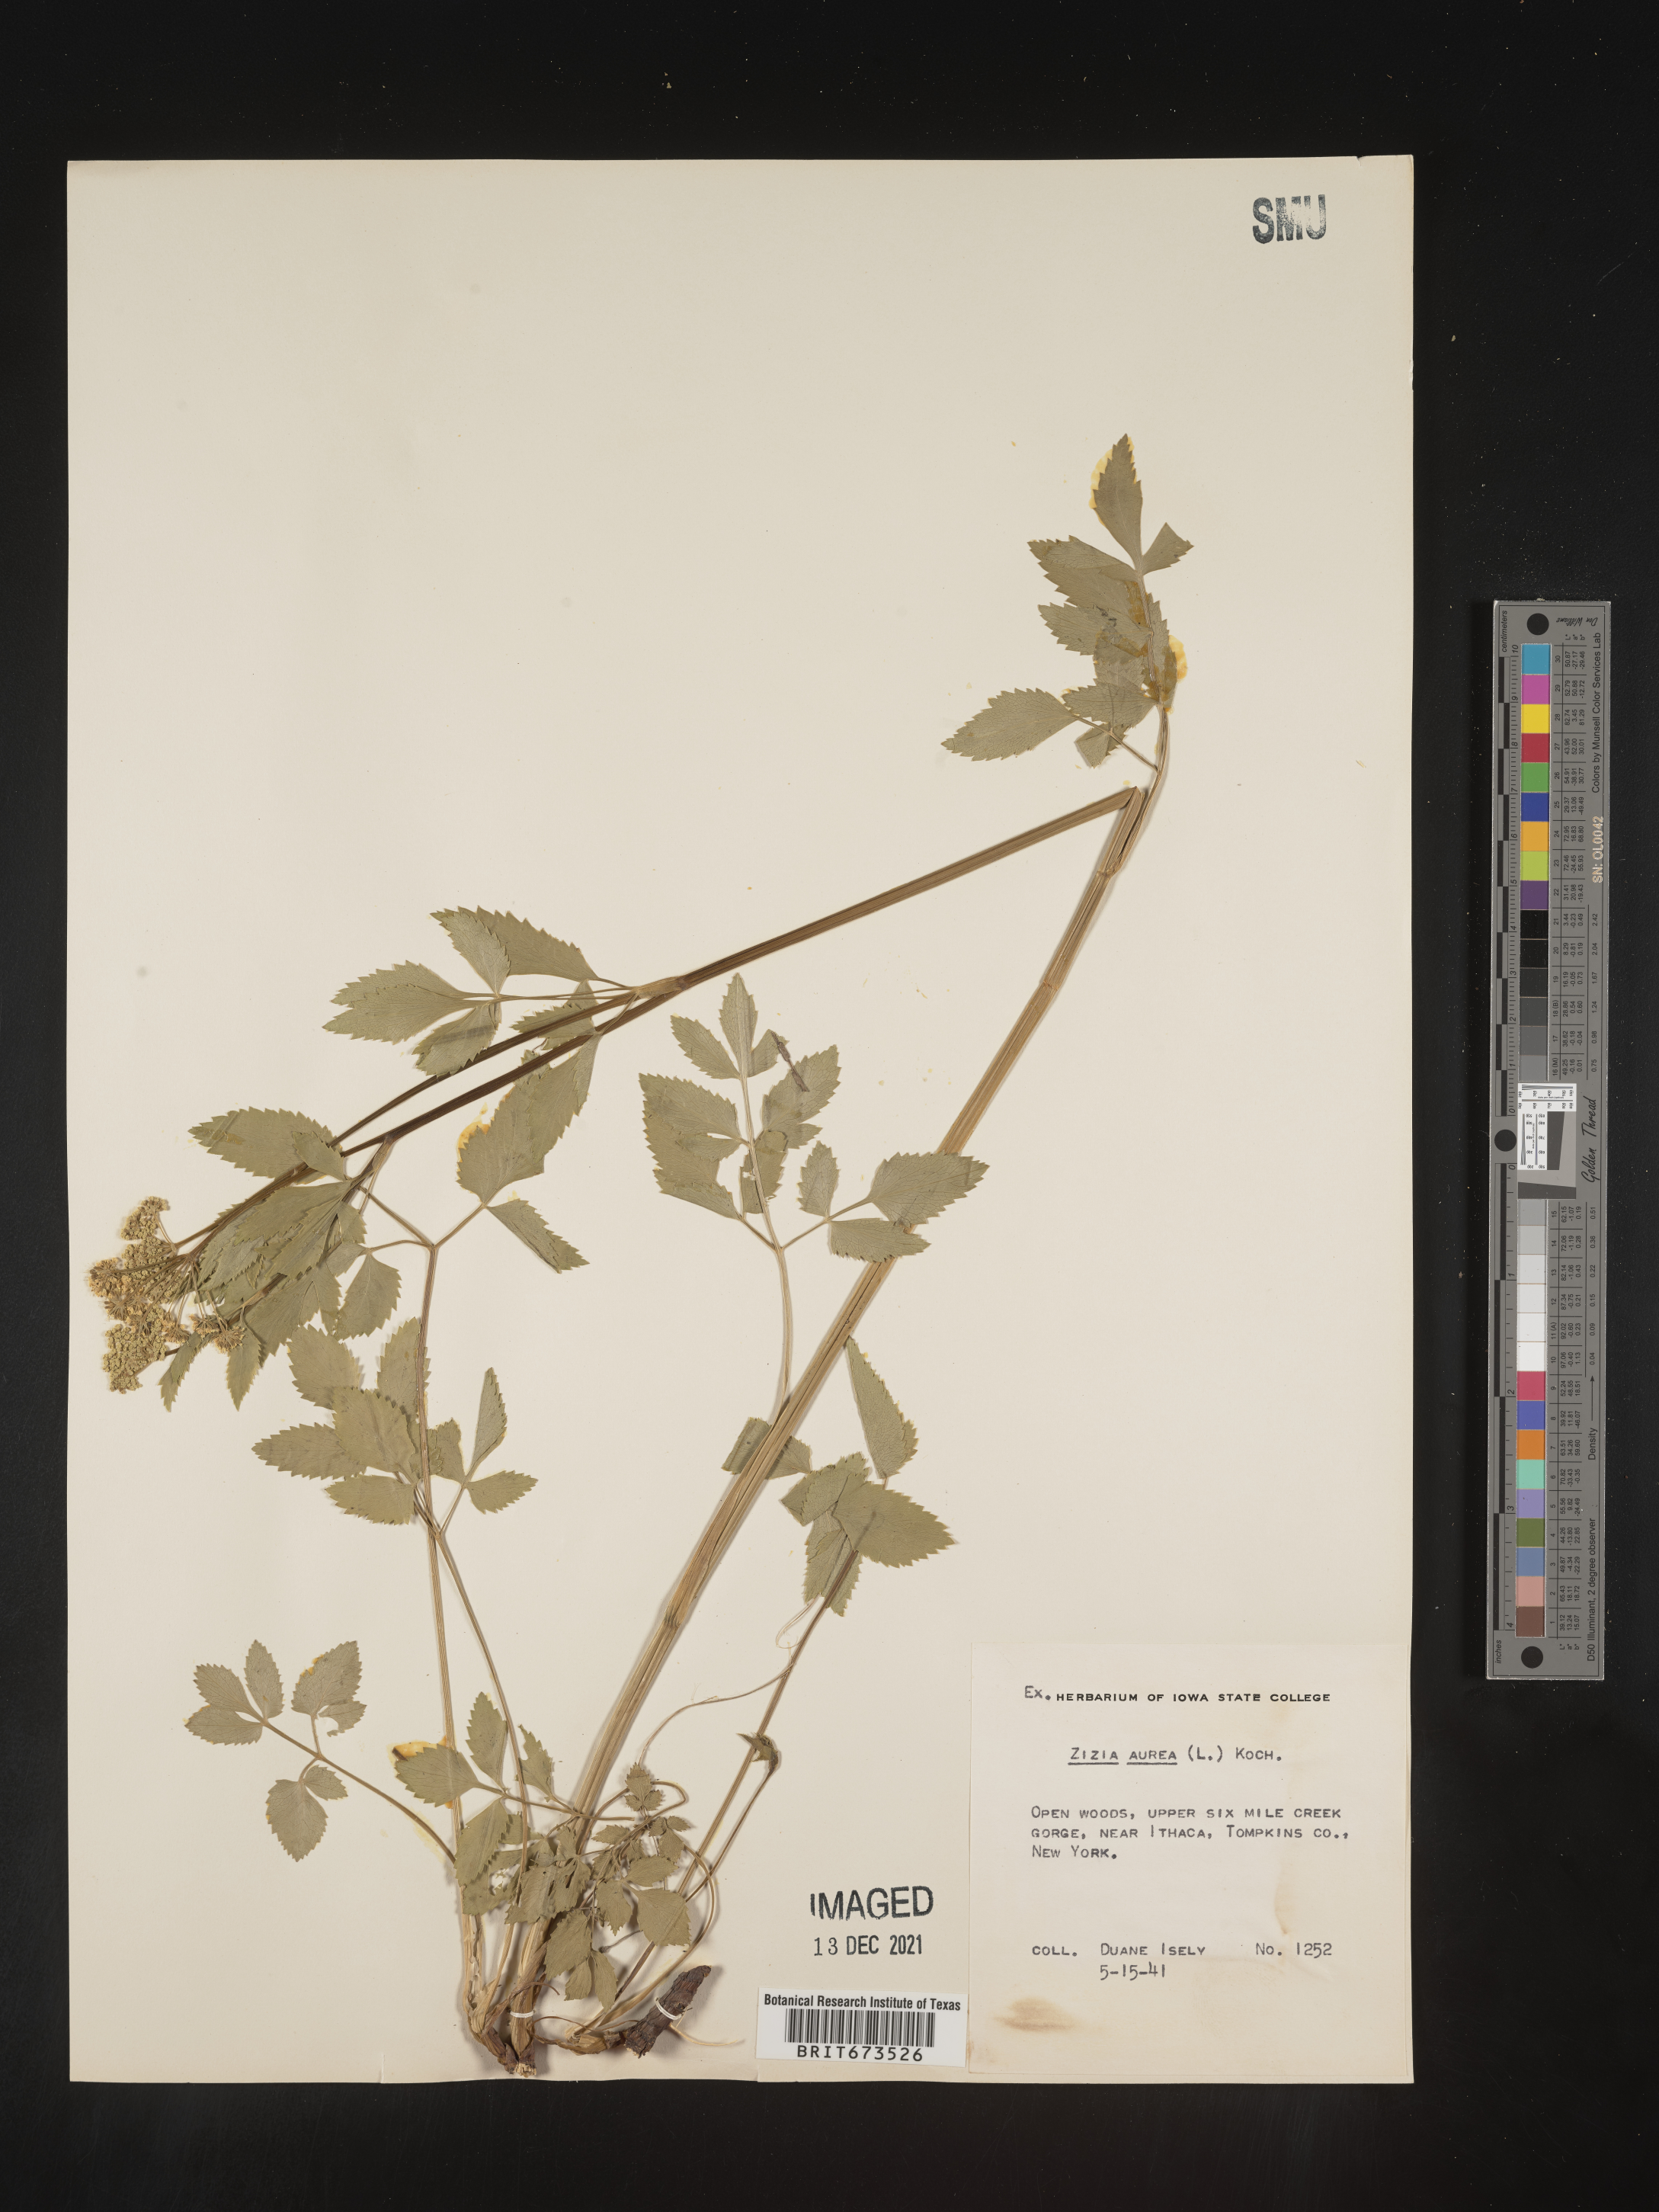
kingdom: Plantae
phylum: Tracheophyta
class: Magnoliopsida
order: Apiales
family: Apiaceae
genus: Zizia
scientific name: Zizia aurea
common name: Golden alexanders
